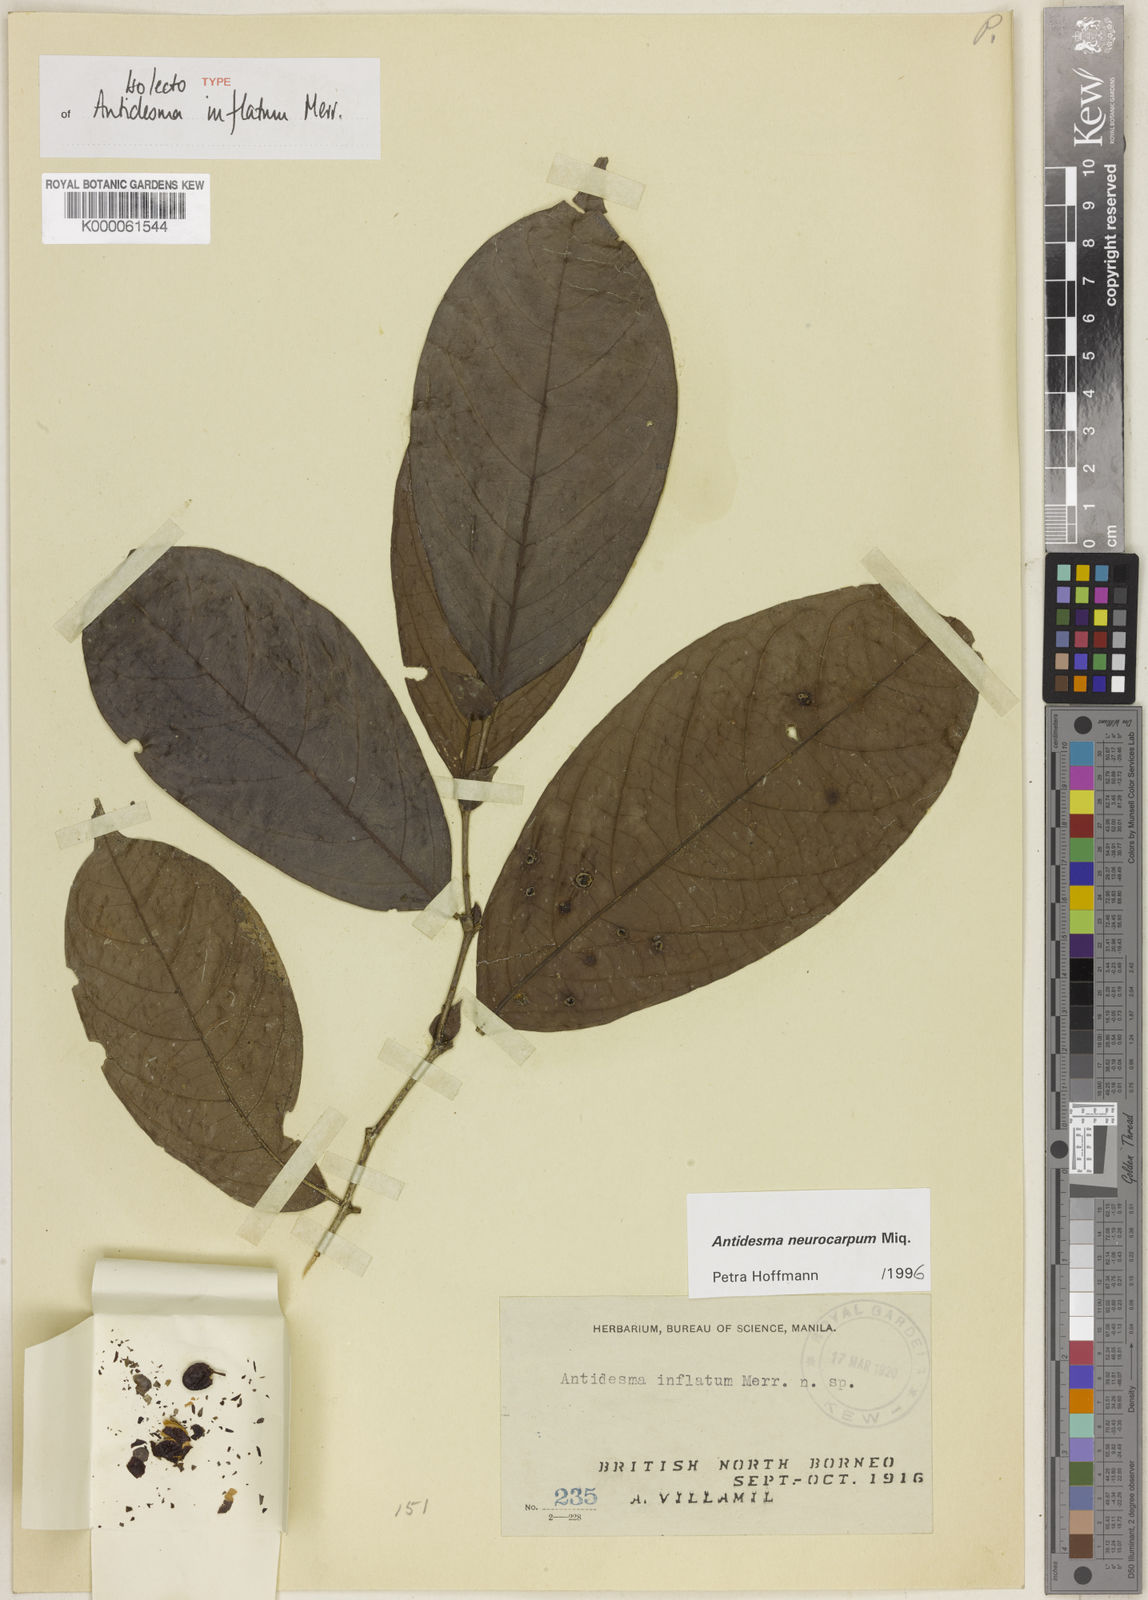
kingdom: Plantae
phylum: Tracheophyta
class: Magnoliopsida
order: Malpighiales
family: Phyllanthaceae
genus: Antidesma
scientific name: Antidesma neurocarpum
